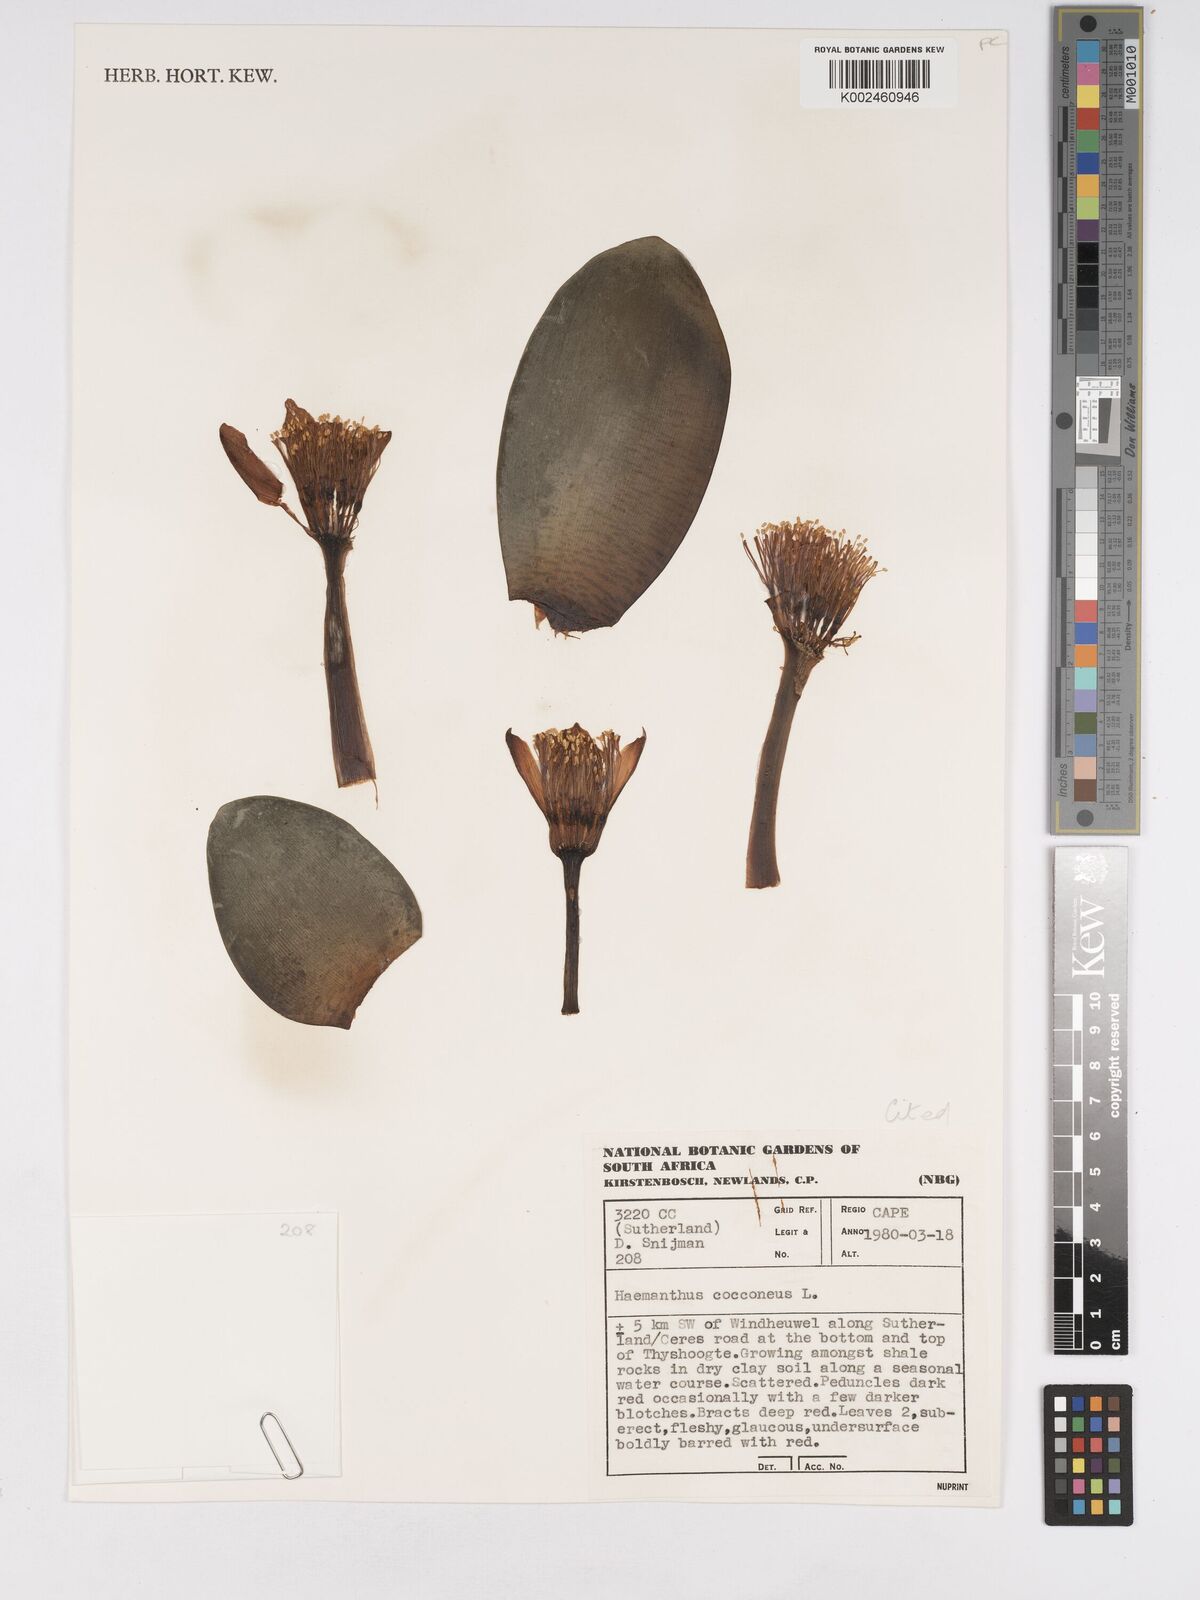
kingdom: Plantae
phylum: Tracheophyta
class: Liliopsida
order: Asparagales
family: Amaryllidaceae
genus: Haemanthus
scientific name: Haemanthus coccineus
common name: Cape-tulip
